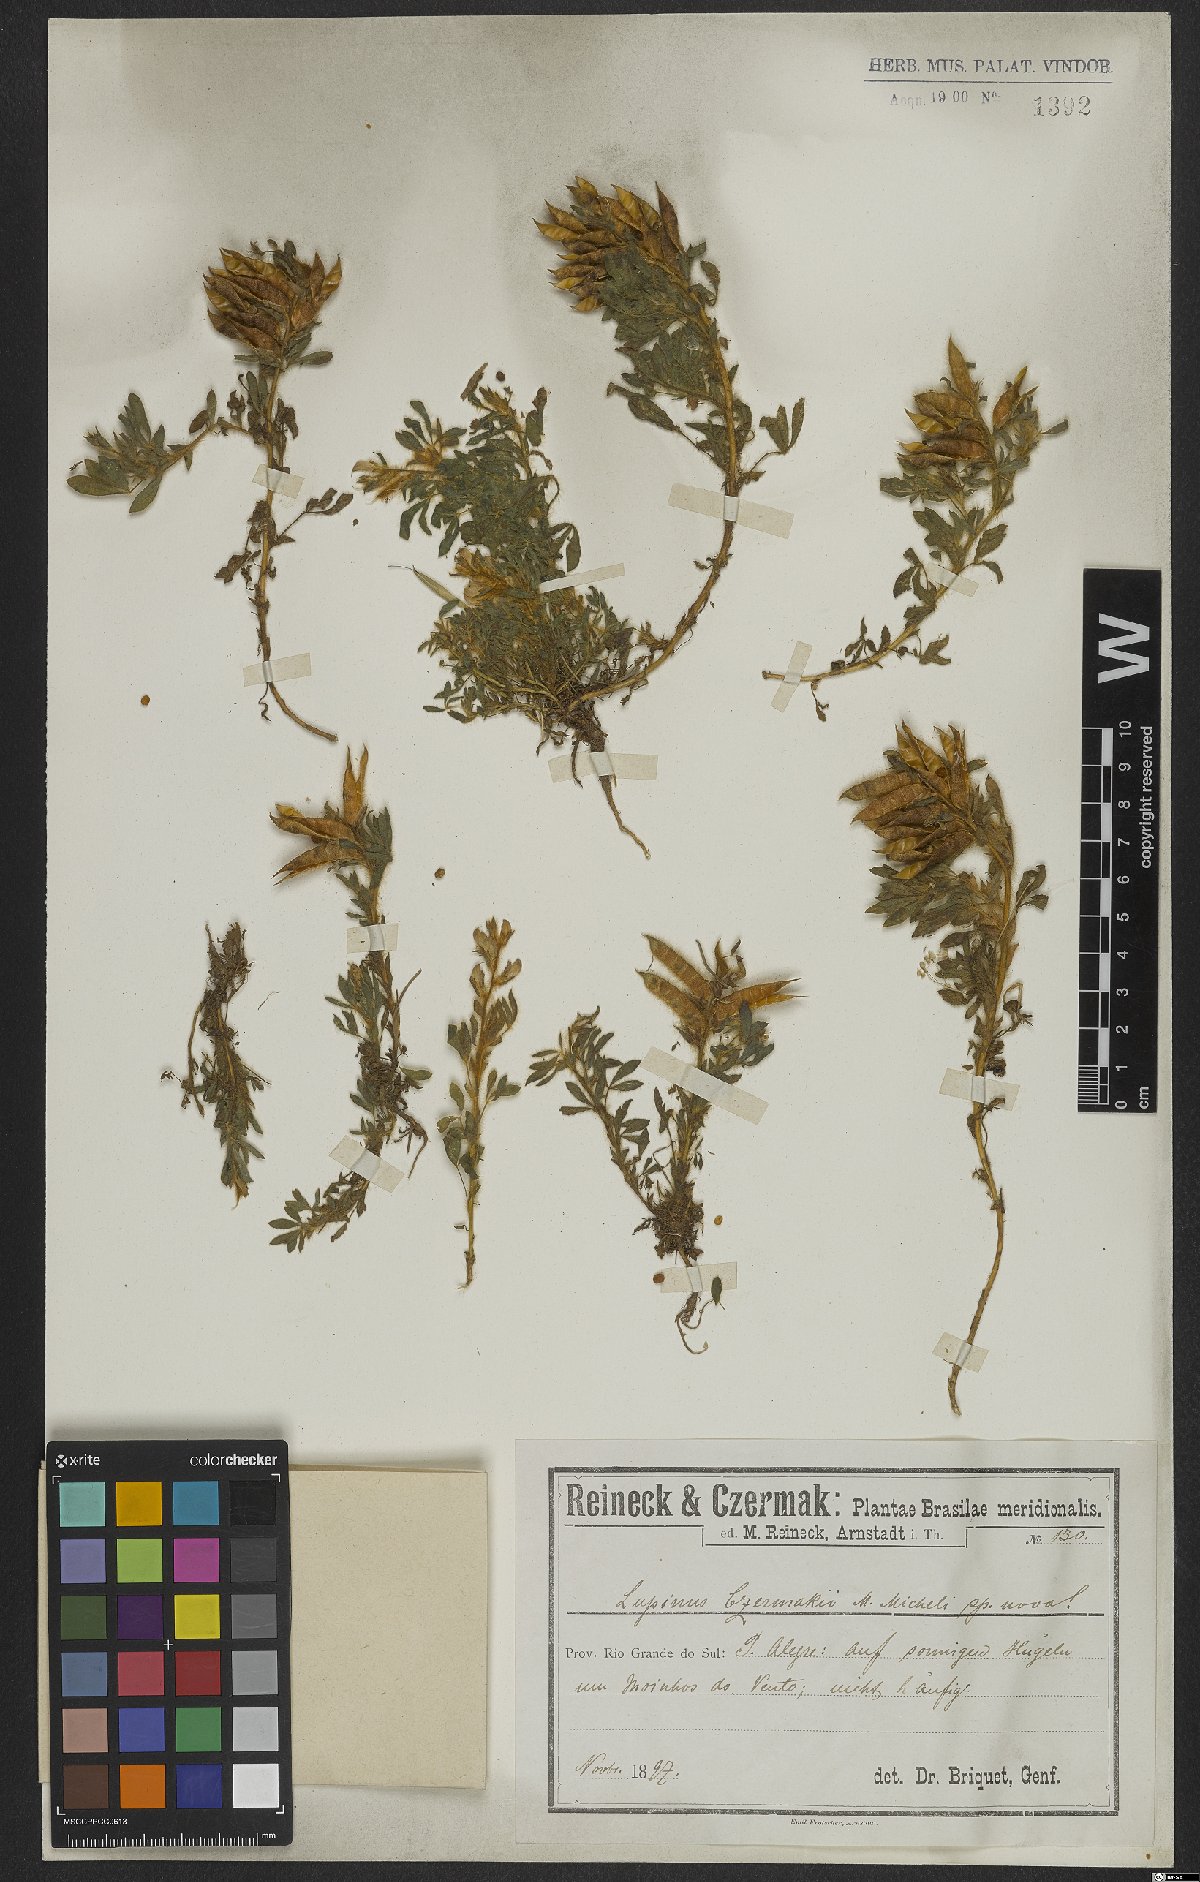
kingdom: Plantae
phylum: Tracheophyta
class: Magnoliopsida
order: Fabales
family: Fabaceae
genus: Lupinus
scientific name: Lupinus linearis
